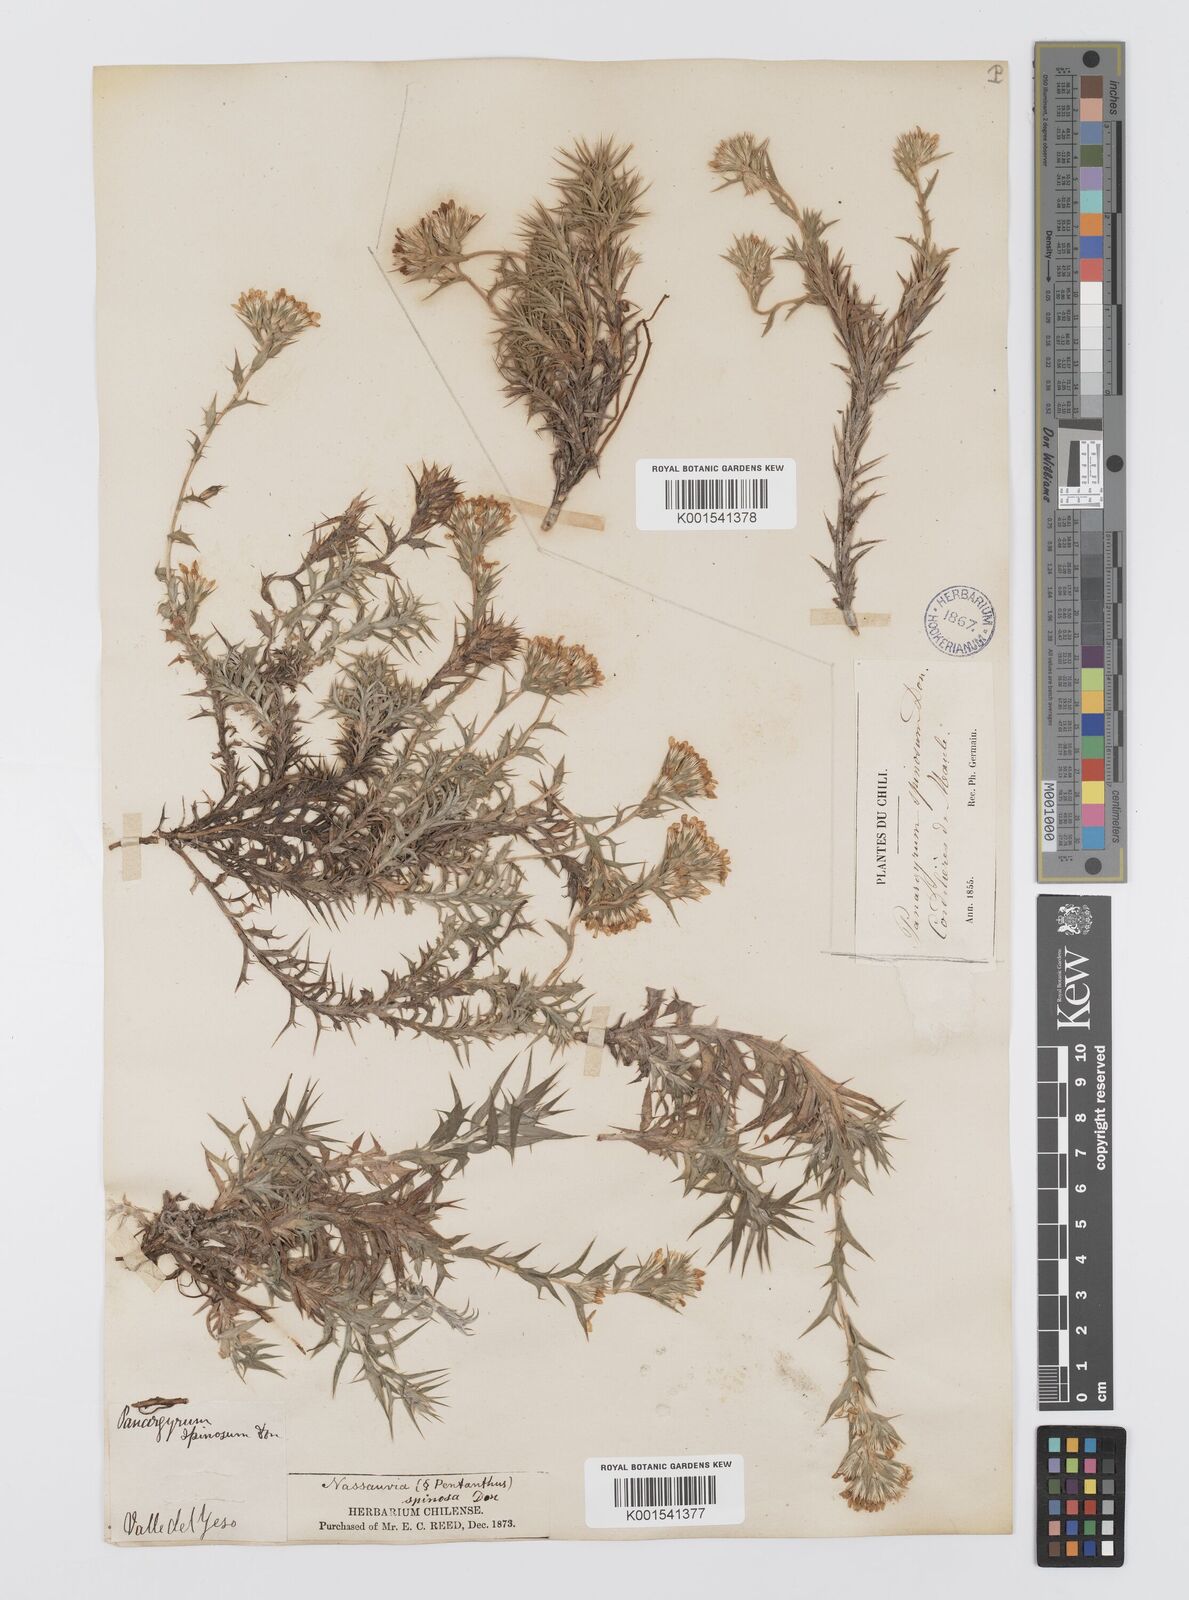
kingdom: Plantae
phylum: Tracheophyta
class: Magnoliopsida
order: Asterales
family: Asteraceae
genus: Nassauvia
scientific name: Nassauvia aculeata
